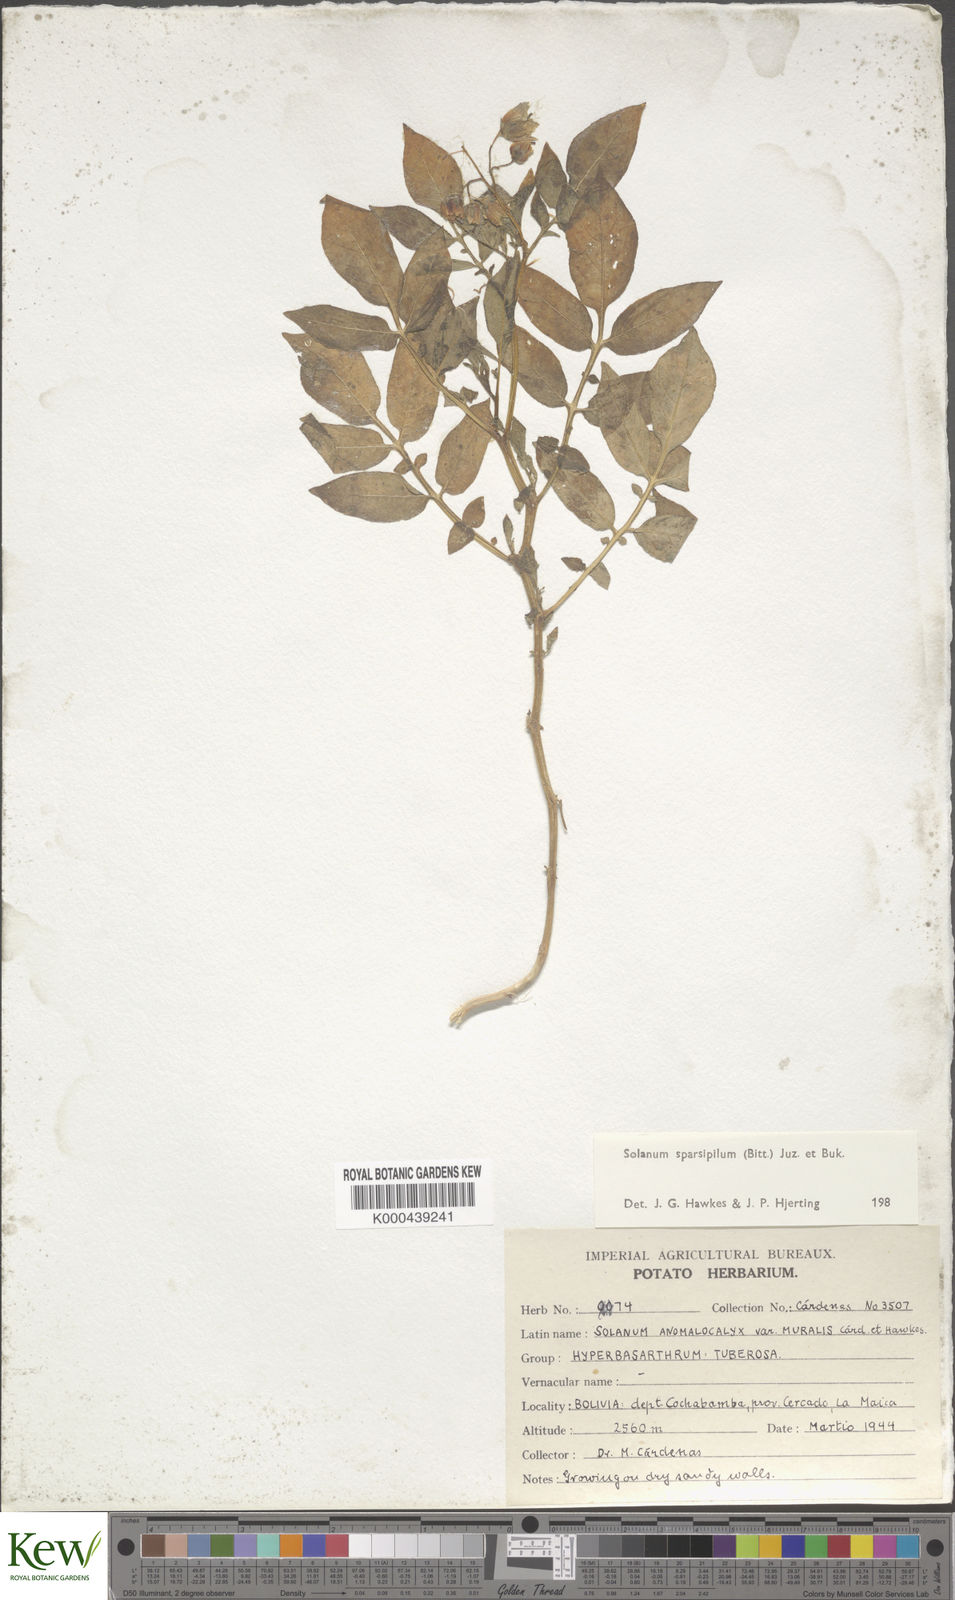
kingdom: Plantae
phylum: Tracheophyta
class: Magnoliopsida
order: Solanales
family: Solanaceae
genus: Solanum
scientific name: Solanum brevicaule
